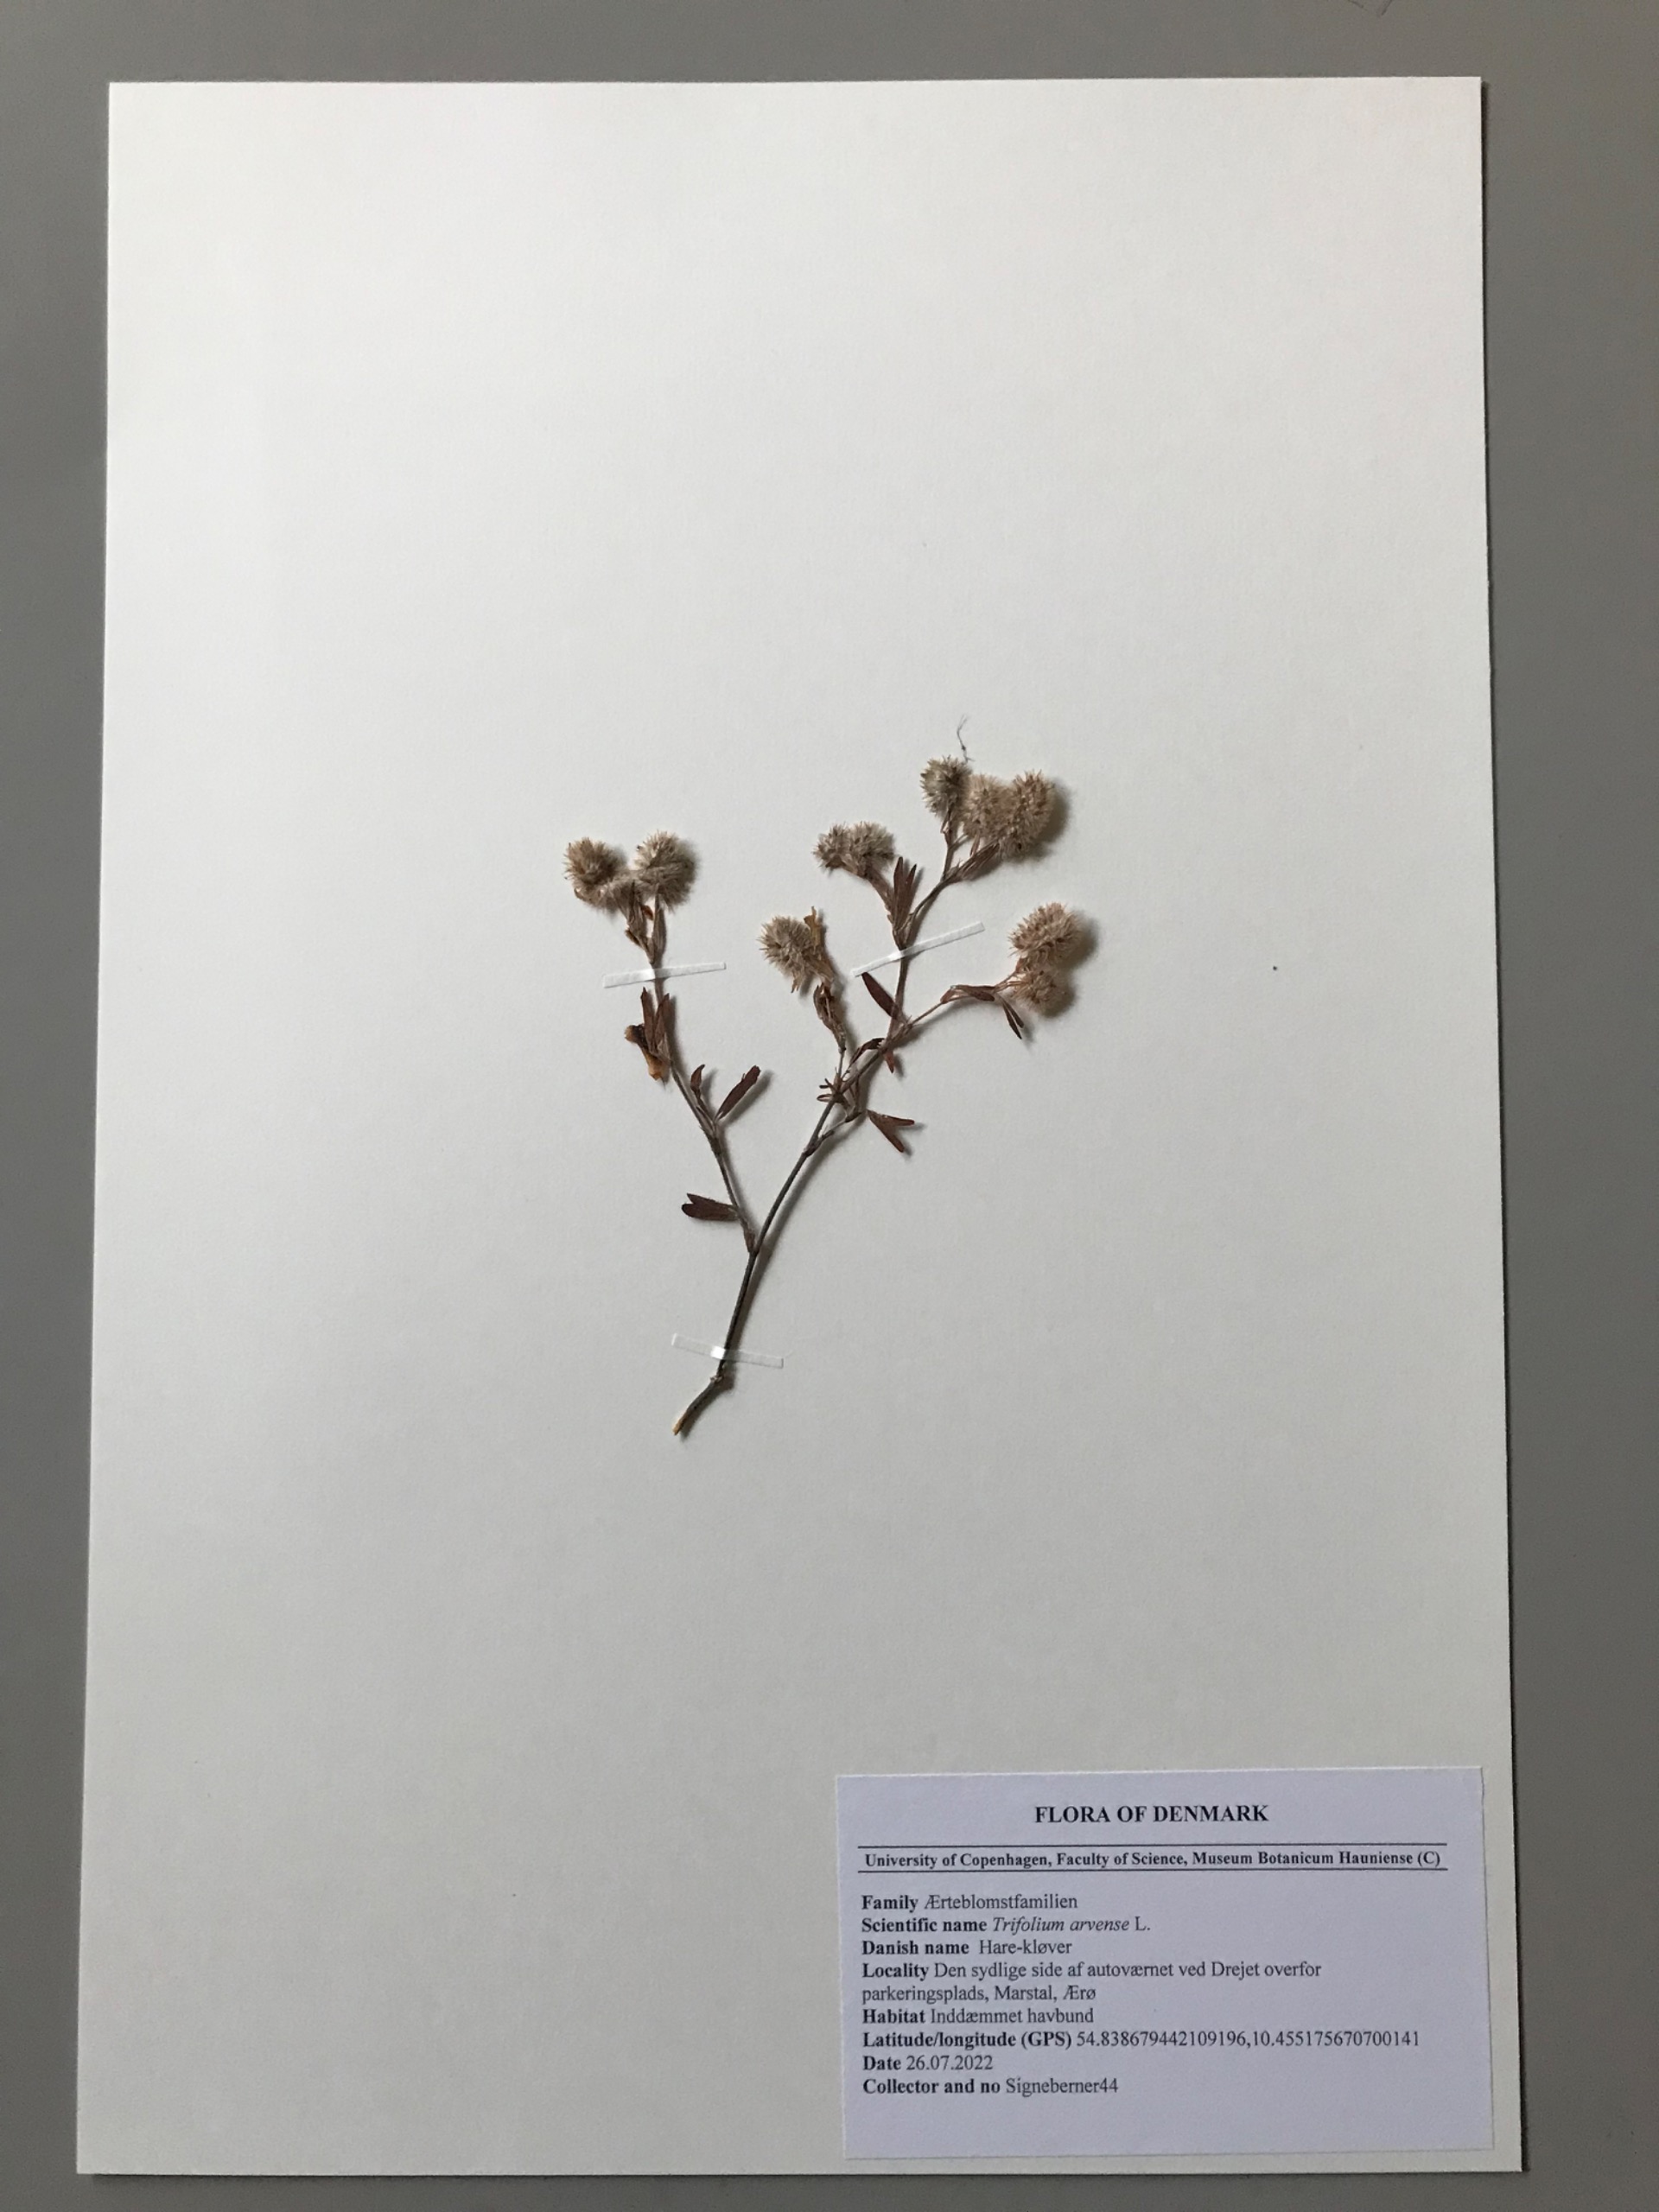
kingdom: Plantae
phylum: Tracheophyta
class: Magnoliopsida
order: Fabales
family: Fabaceae
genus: Trifolium
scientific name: Trifolium arvense
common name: Hare-kløver
